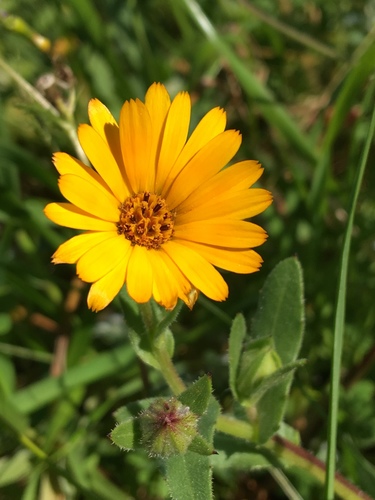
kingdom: Plantae
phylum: Tracheophyta
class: Magnoliopsida
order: Asterales
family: Asteraceae
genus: Calendula
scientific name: Calendula arvensis
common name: Field marigold
